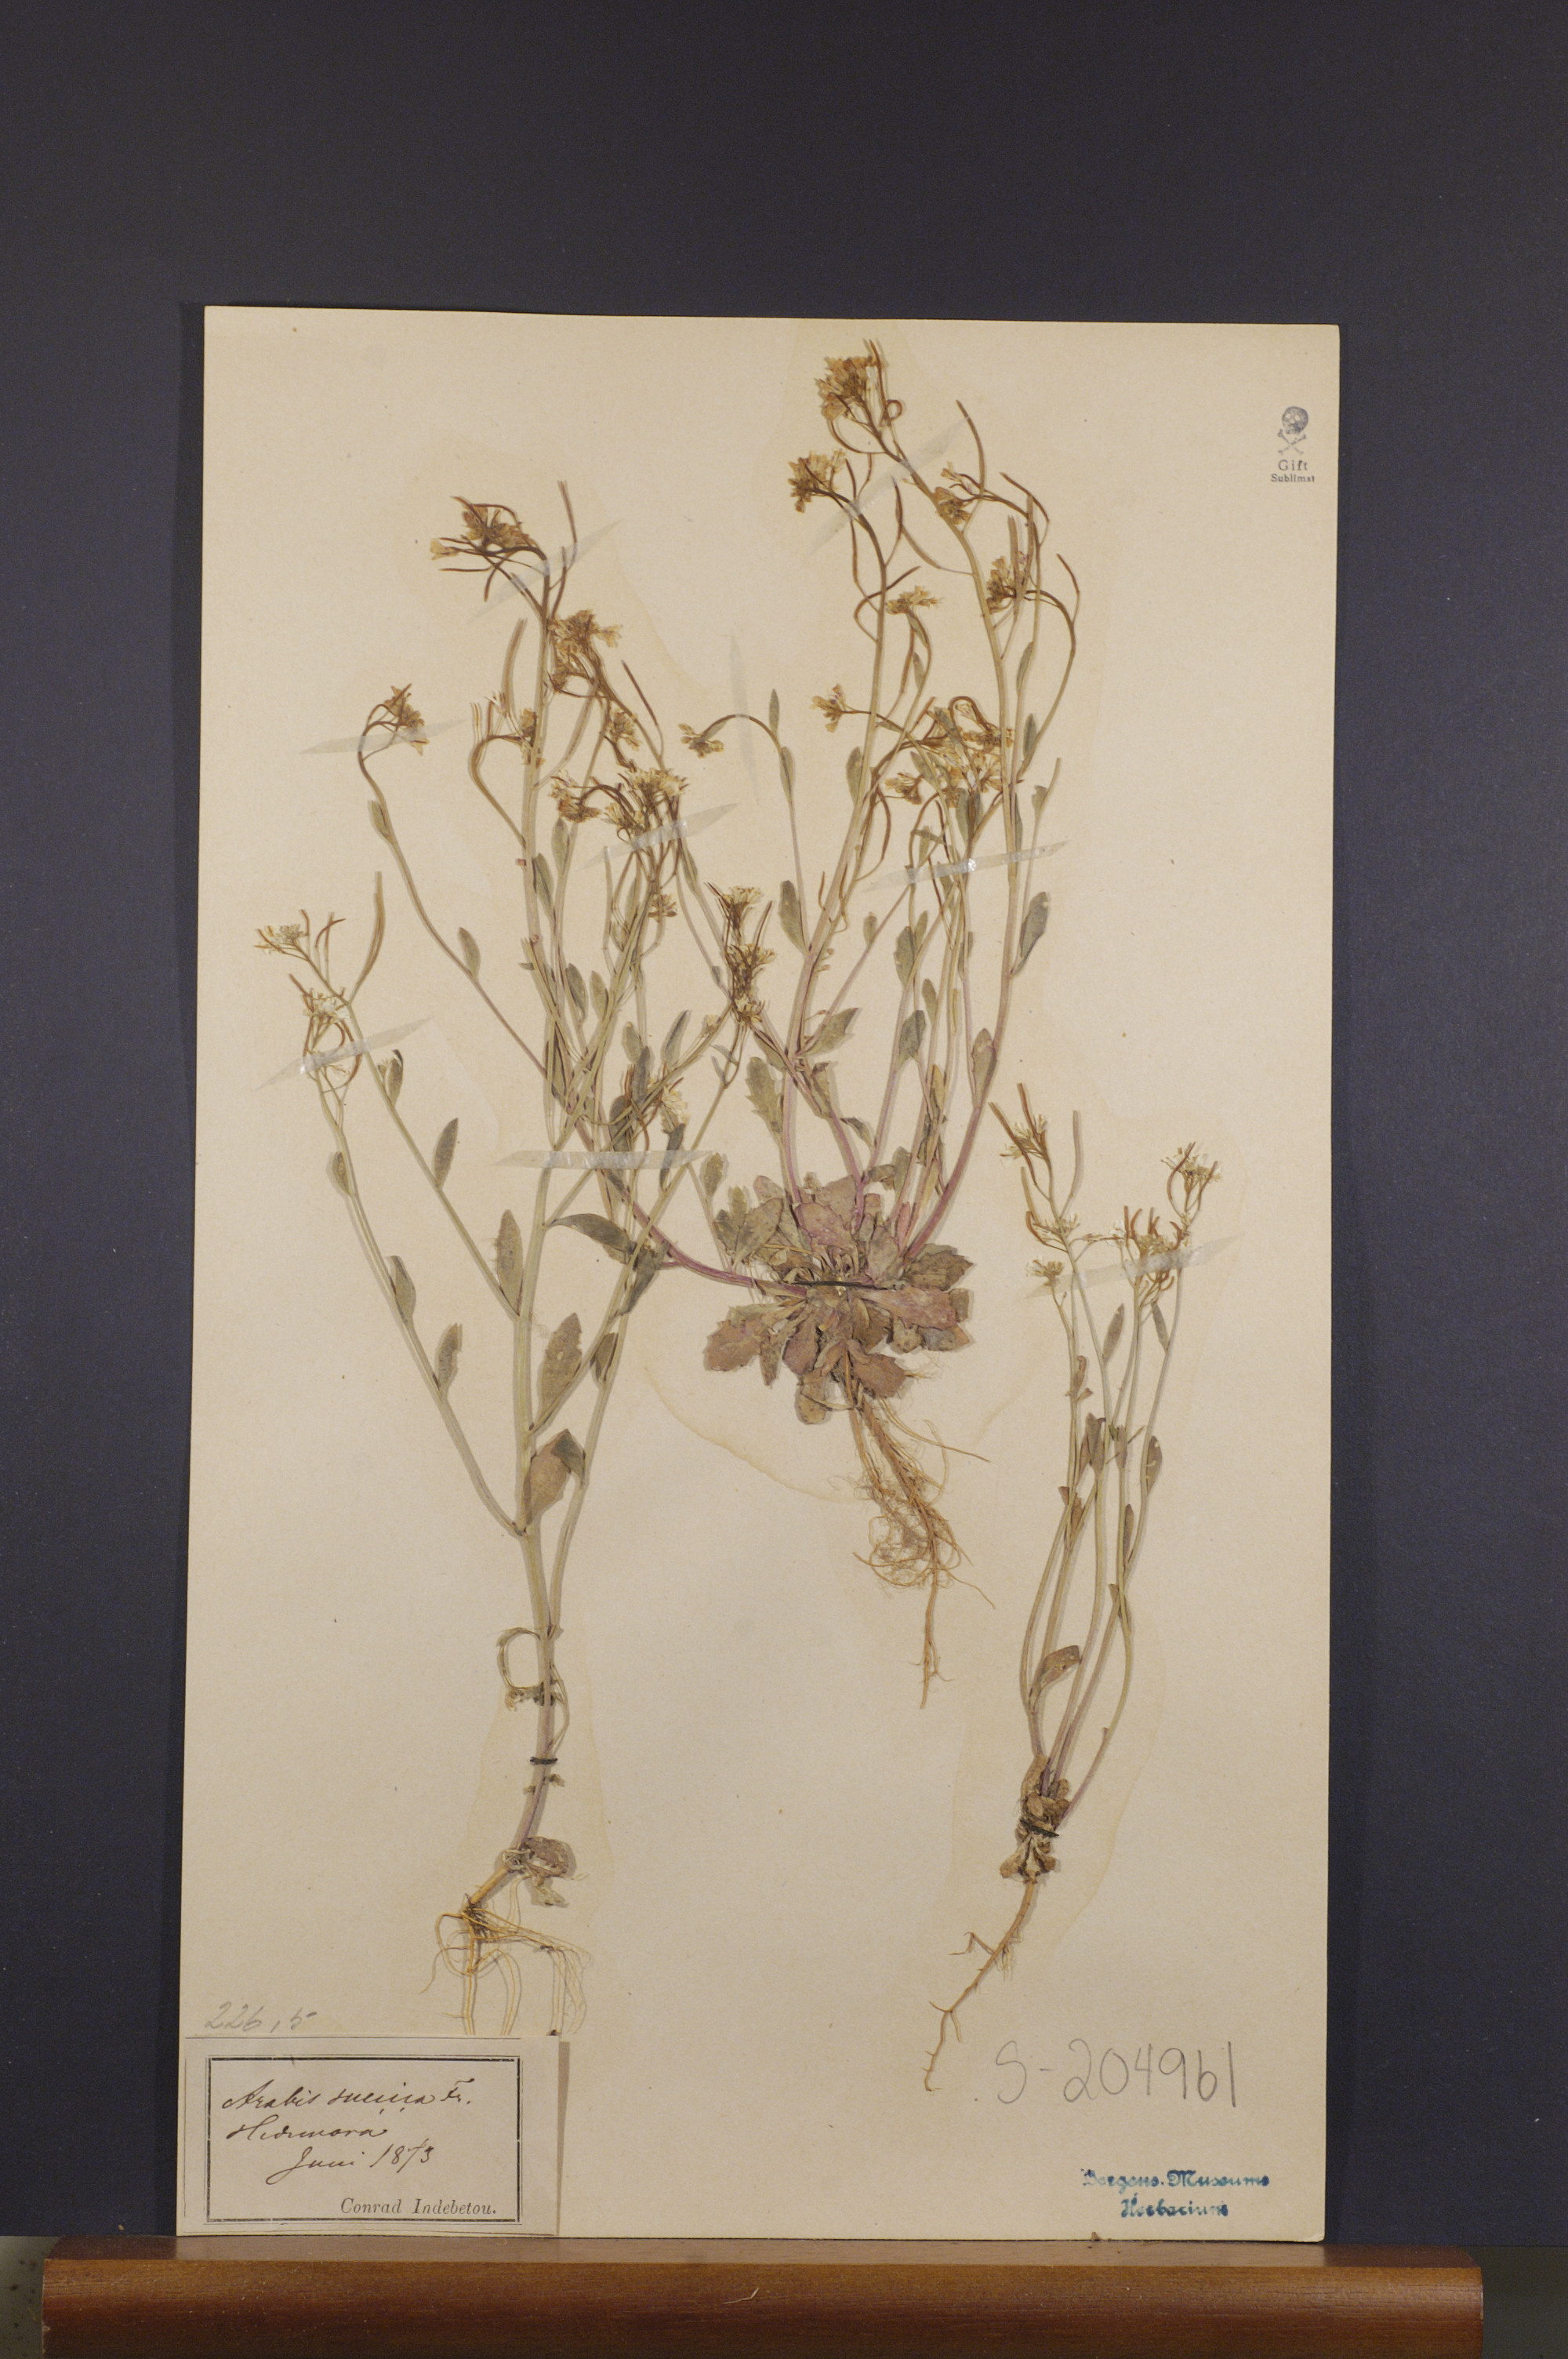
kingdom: Plantae
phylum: Tracheophyta
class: Magnoliopsida
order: Brassicales
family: Brassicaceae
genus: Arabidopsis
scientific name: Arabidopsis suecica
